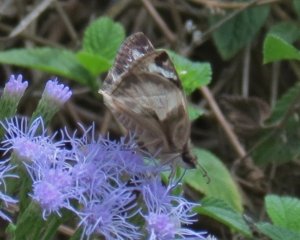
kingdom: Animalia
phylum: Arthropoda
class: Insecta
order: Lepidoptera
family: Hesperiidae
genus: Heliopetes
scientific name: Heliopetes laviana
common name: Laviana White-Skipper
